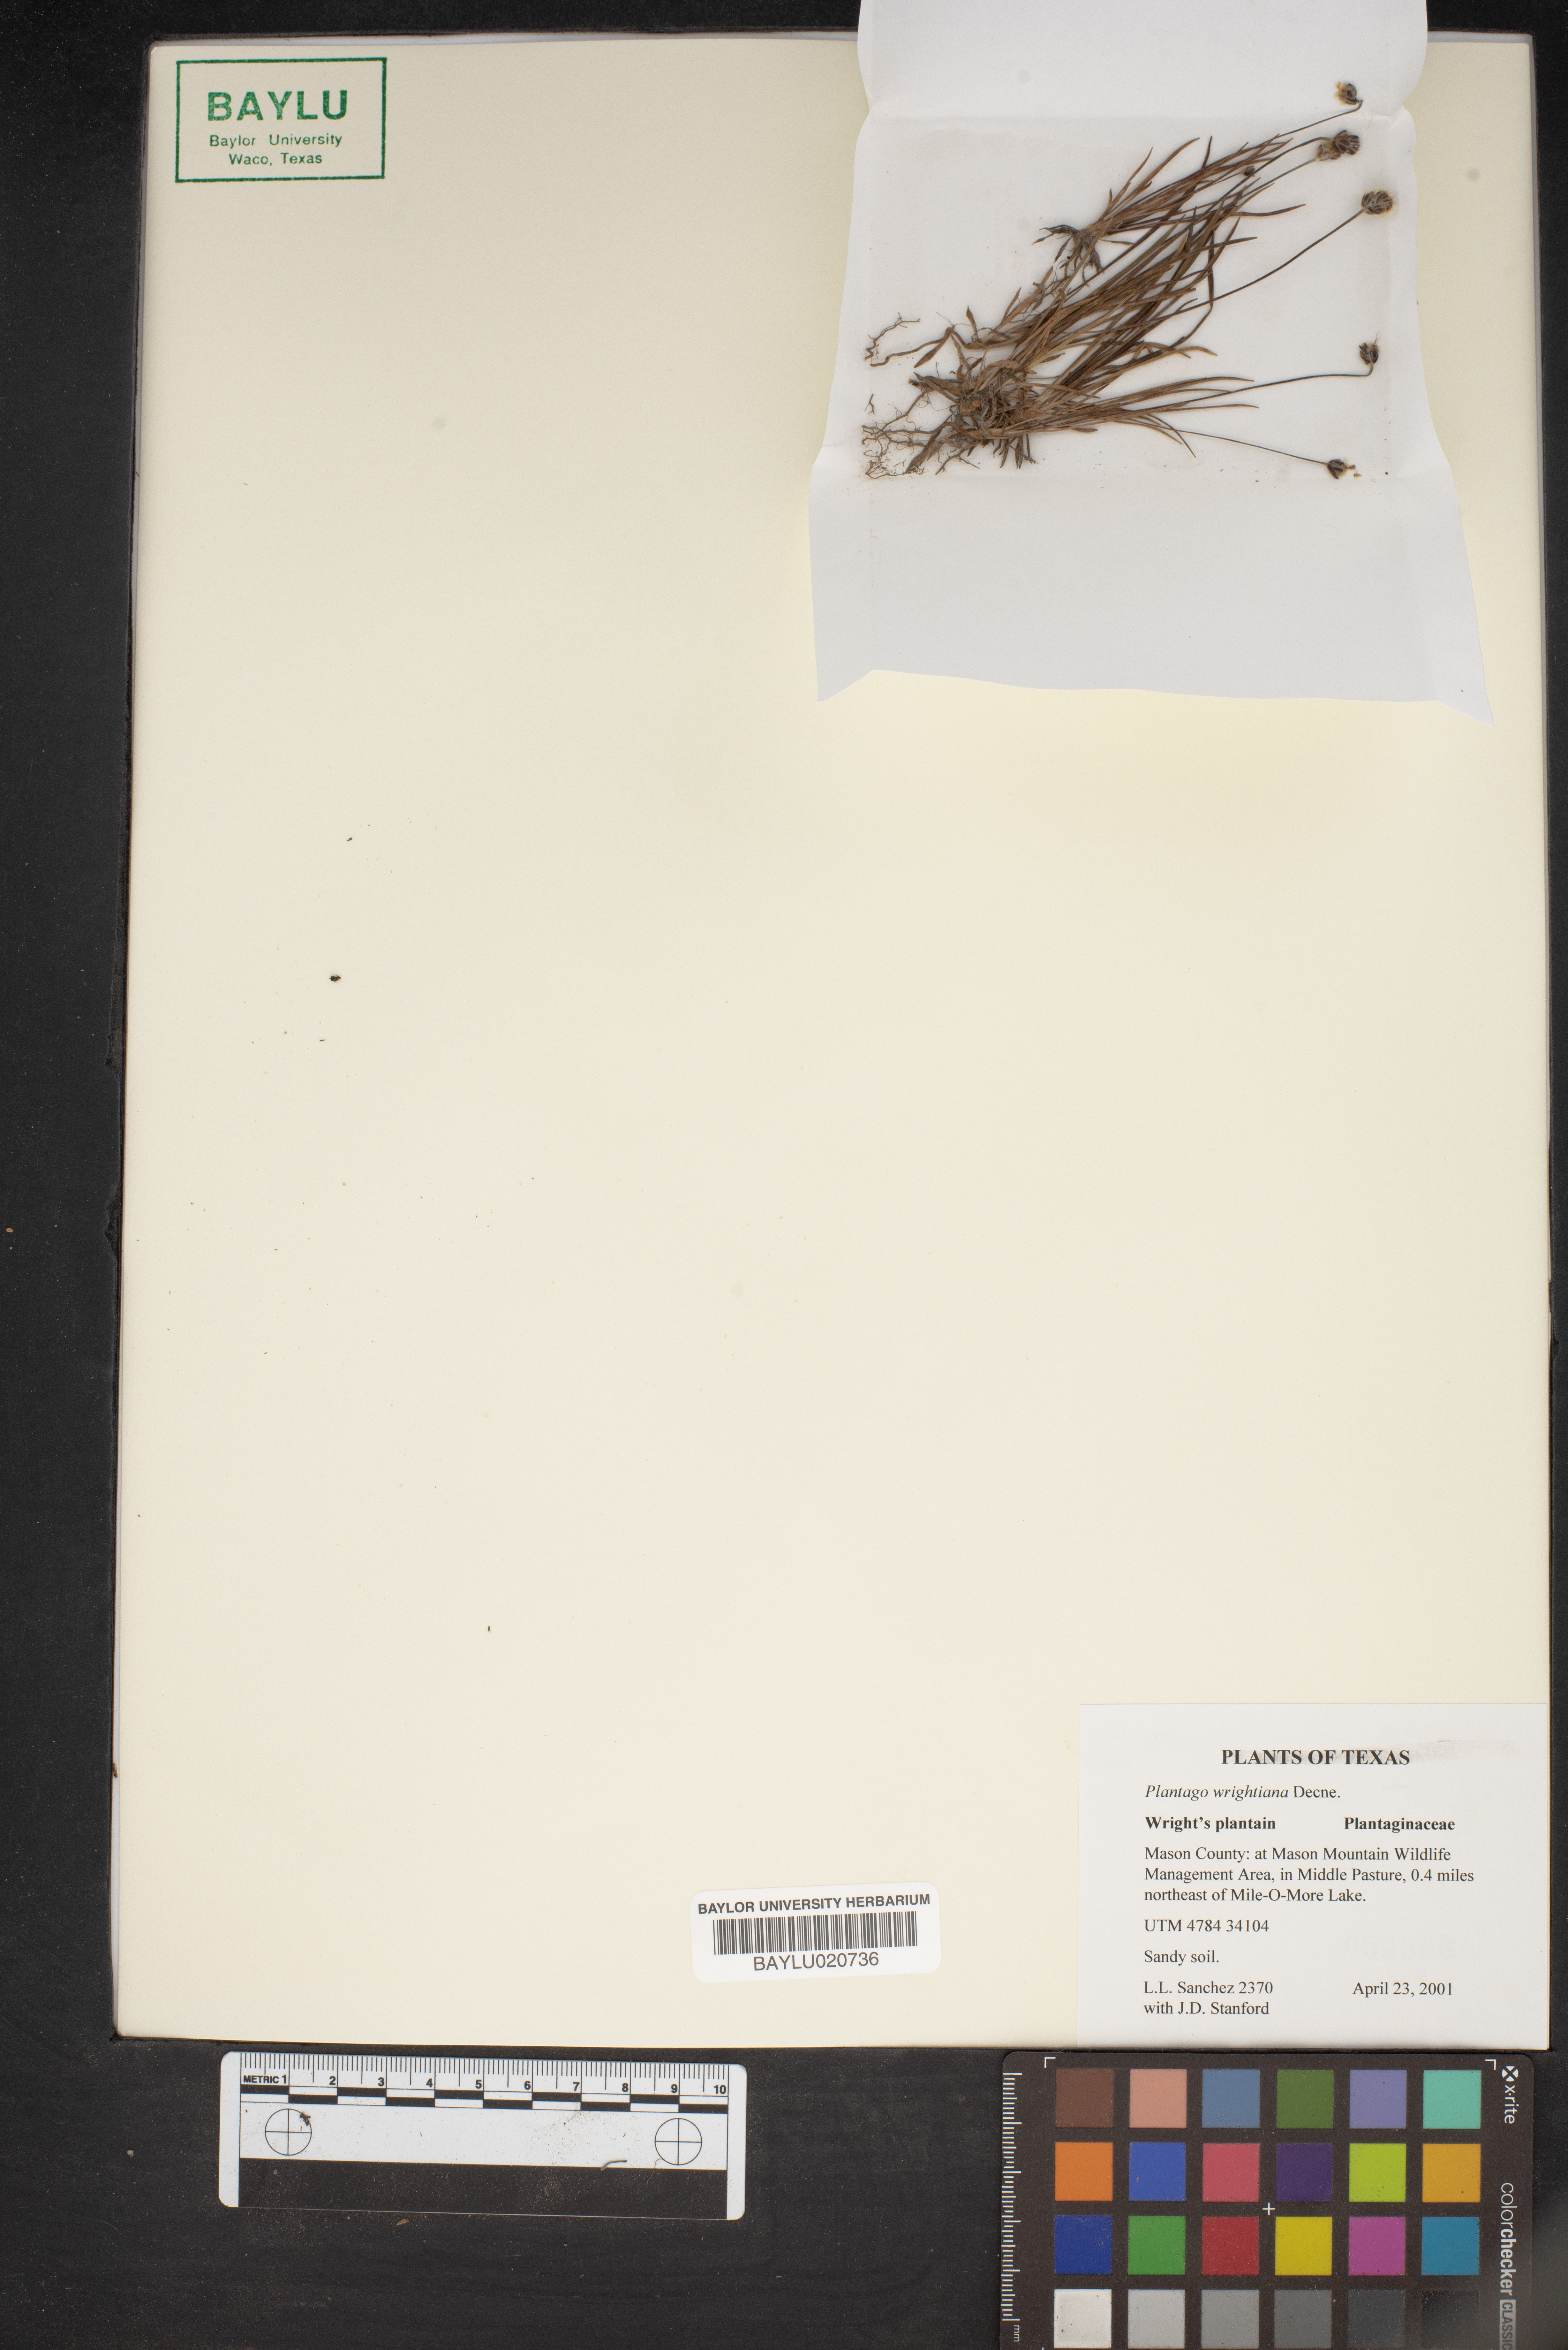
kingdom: Plantae
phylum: Tracheophyta
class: Magnoliopsida
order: Lamiales
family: Plantaginaceae
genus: Plantago
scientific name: Plantago wrightiana
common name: Wright's plantain
